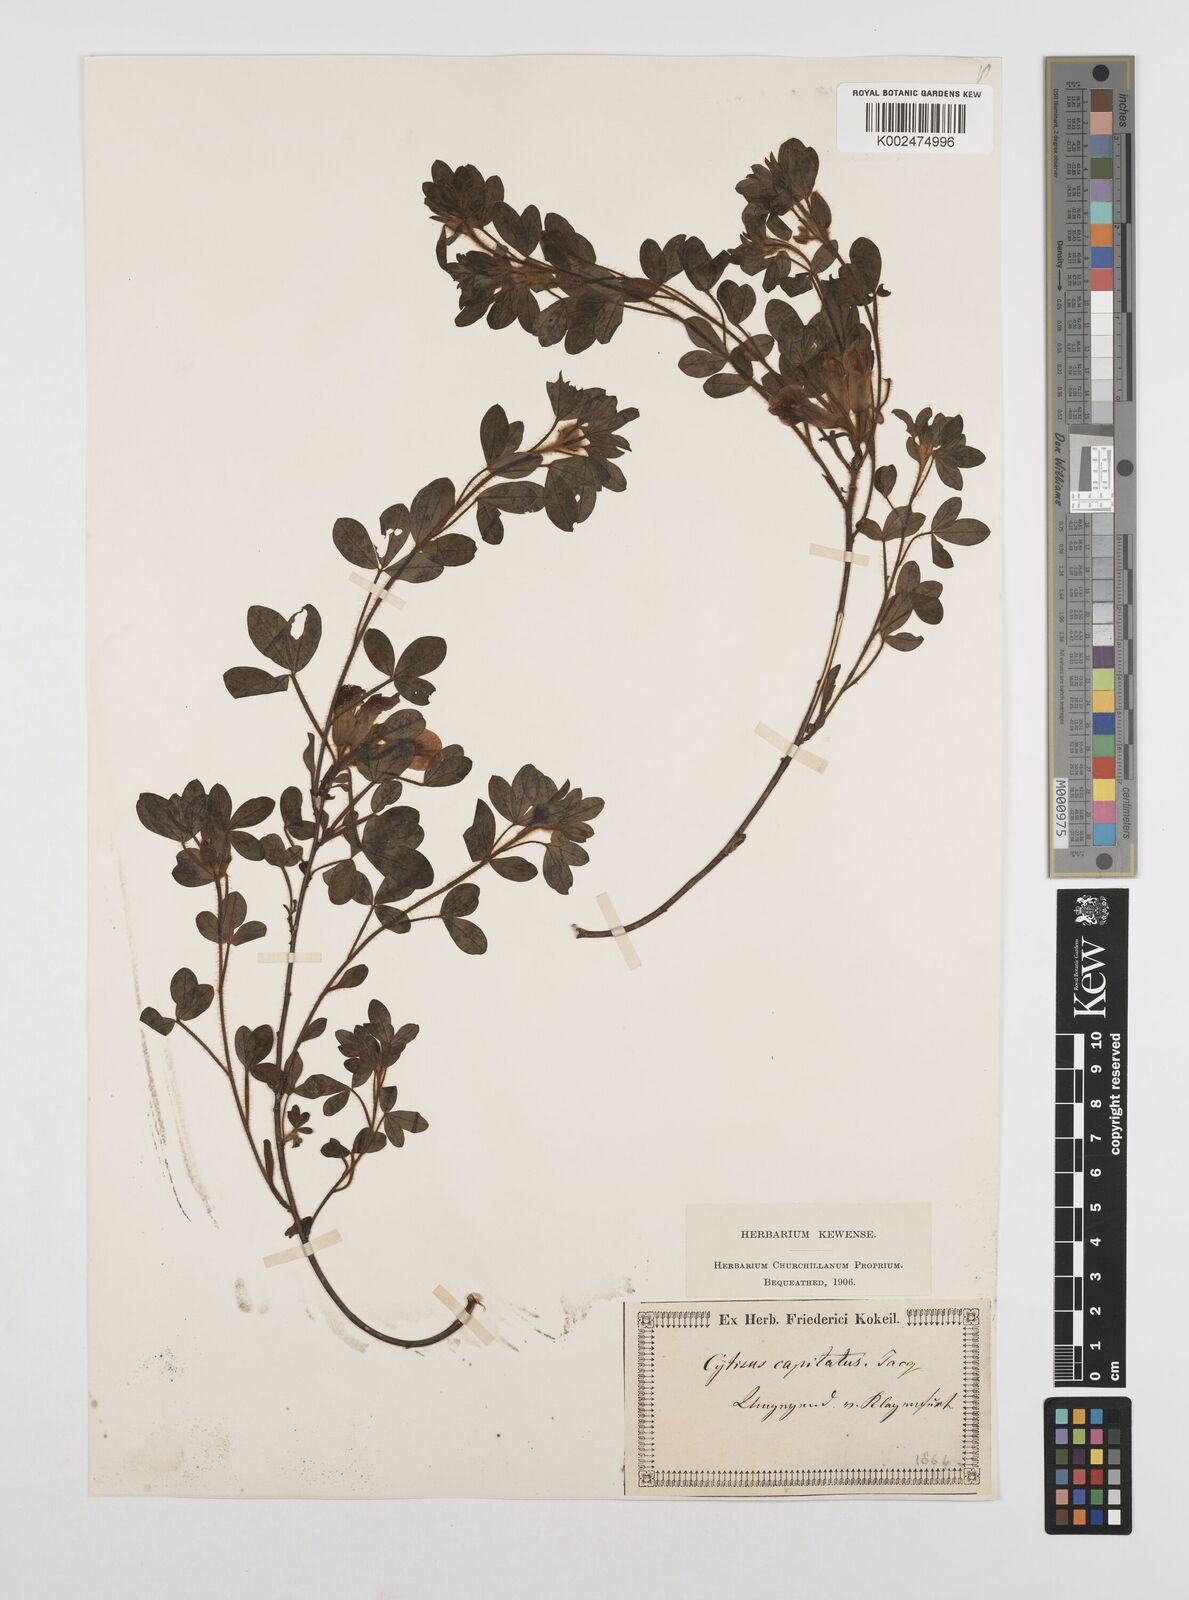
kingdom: Plantae
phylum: Tracheophyta
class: Magnoliopsida
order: Fabales
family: Fabaceae
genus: Chamaecytisus
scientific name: Chamaecytisus hirsutus
